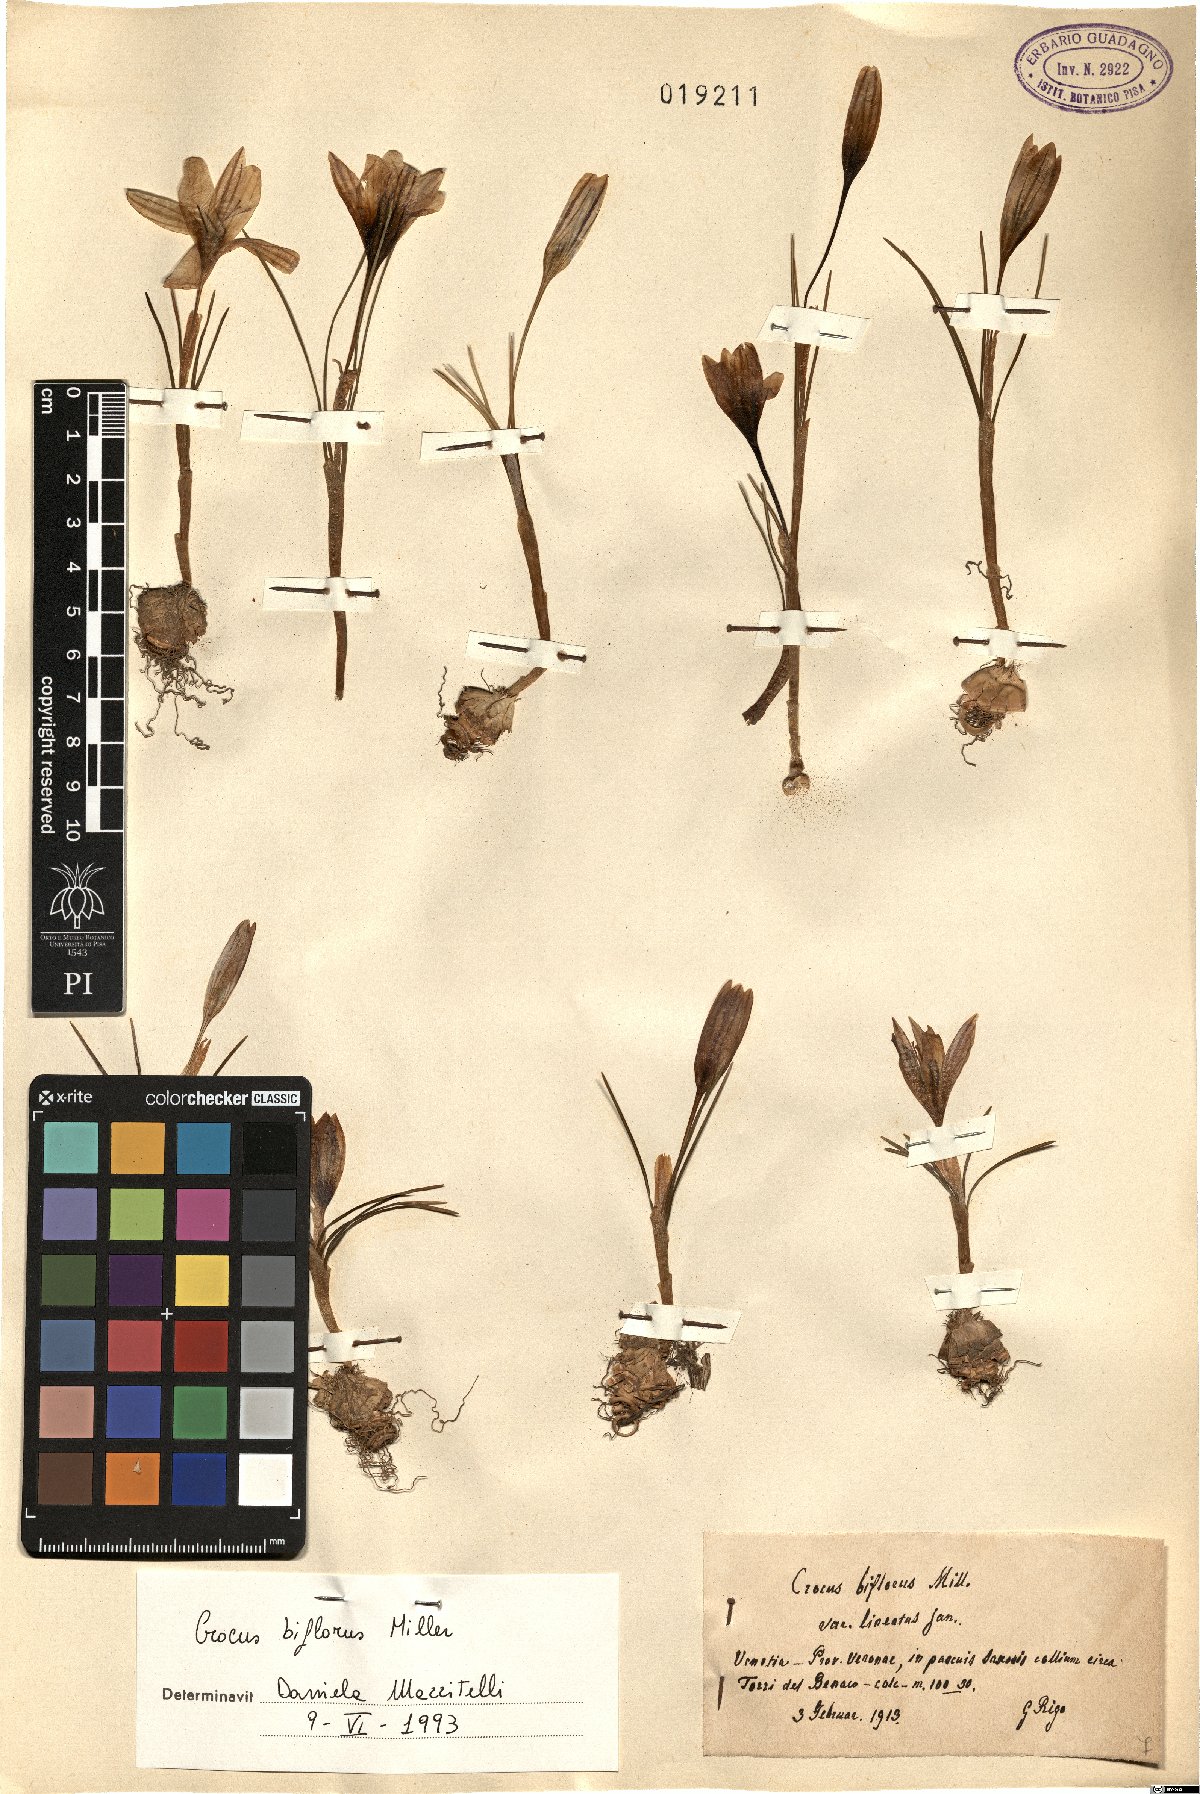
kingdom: Plantae
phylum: Tracheophyta
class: Liliopsida
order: Asparagales
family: Iridaceae
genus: Crocus
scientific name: Crocus biflorus
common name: Silvery crocus
